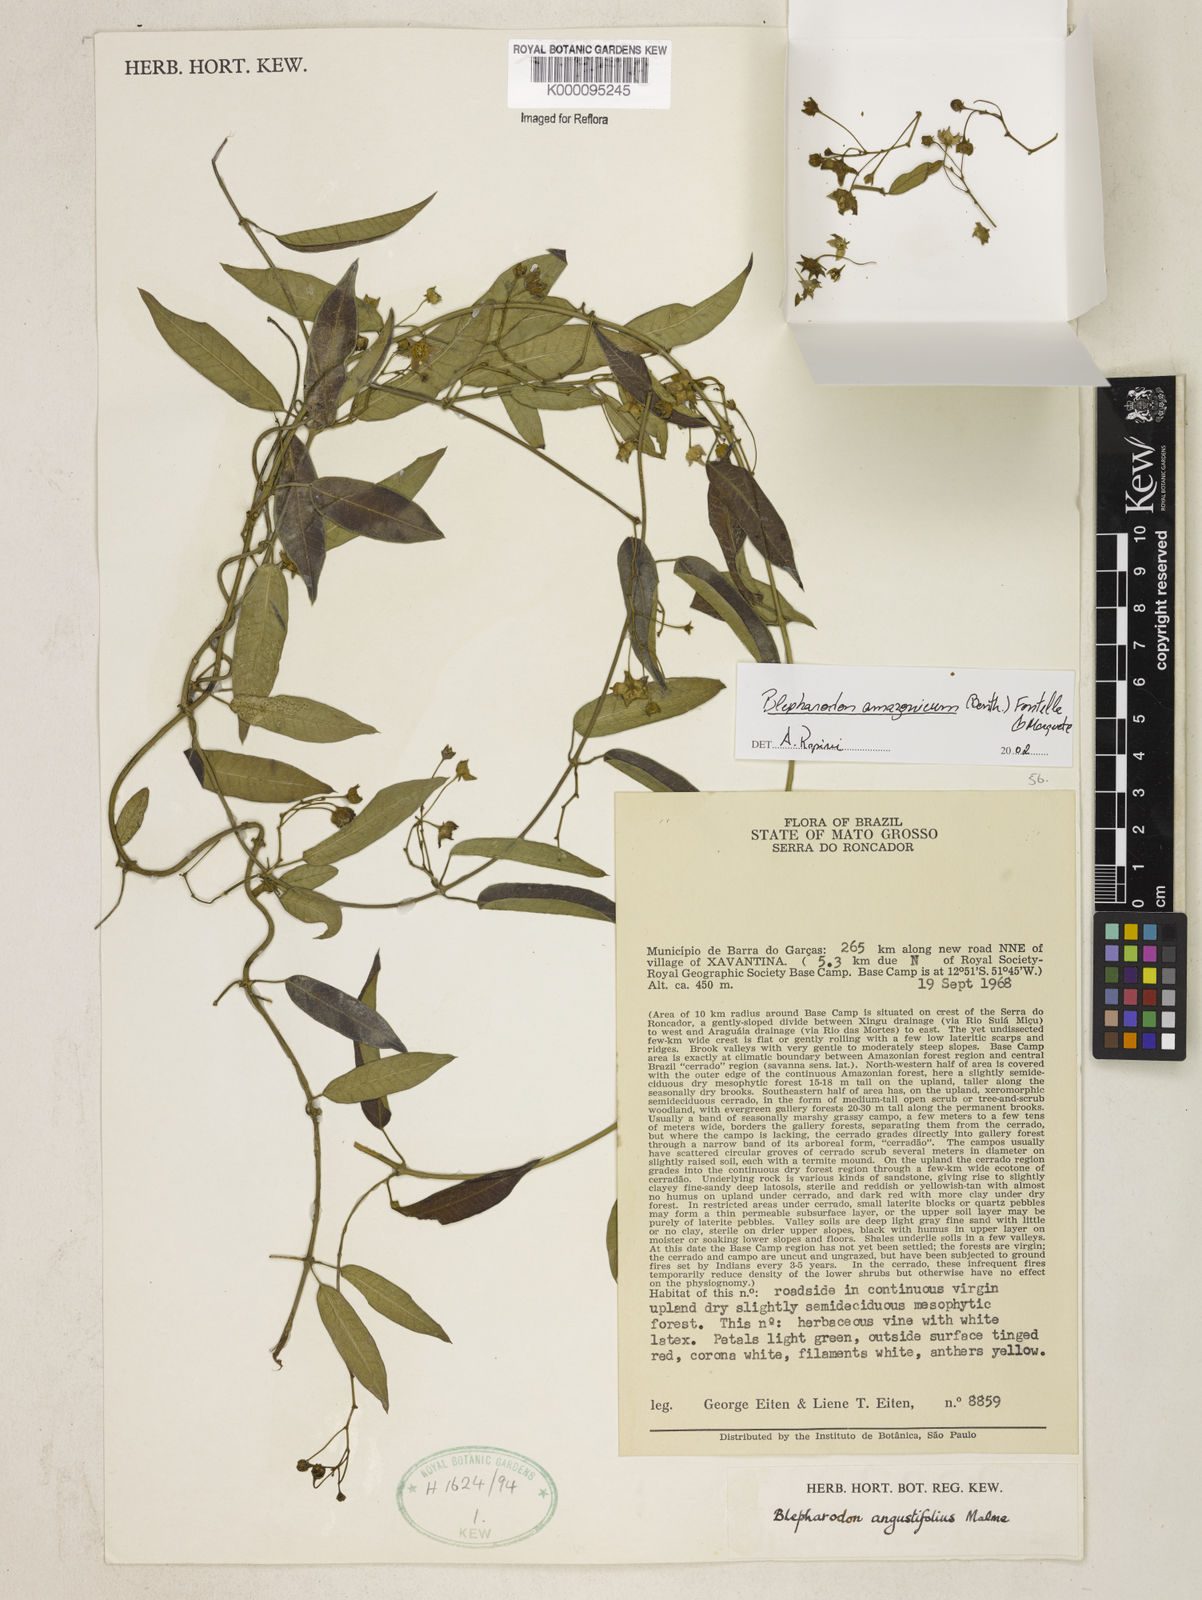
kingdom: Plantae
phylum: Tracheophyta
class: Magnoliopsida
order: Gentianales
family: Apocynaceae
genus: Blepharodon
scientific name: Blepharodon amazonicum
